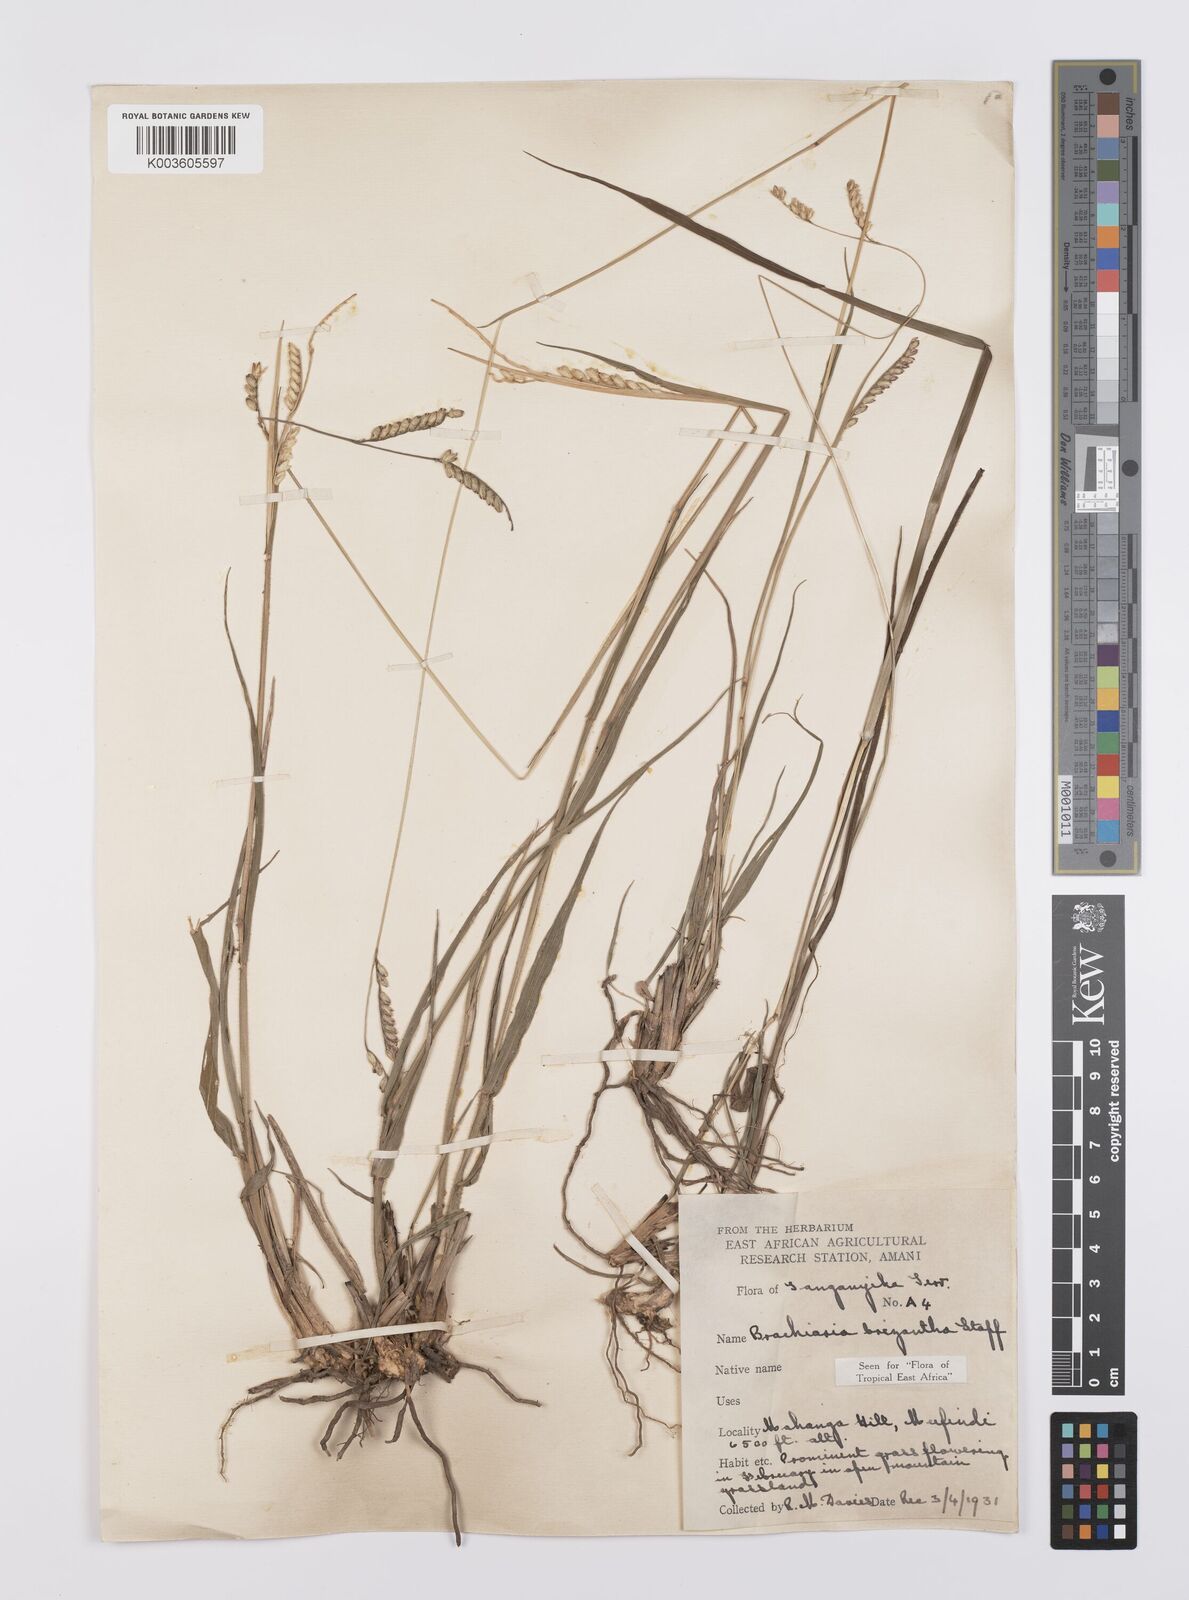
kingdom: Plantae
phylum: Tracheophyta
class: Liliopsida
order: Poales
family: Poaceae
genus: Urochloa
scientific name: Urochloa brizantha
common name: Palisade signalgrass
